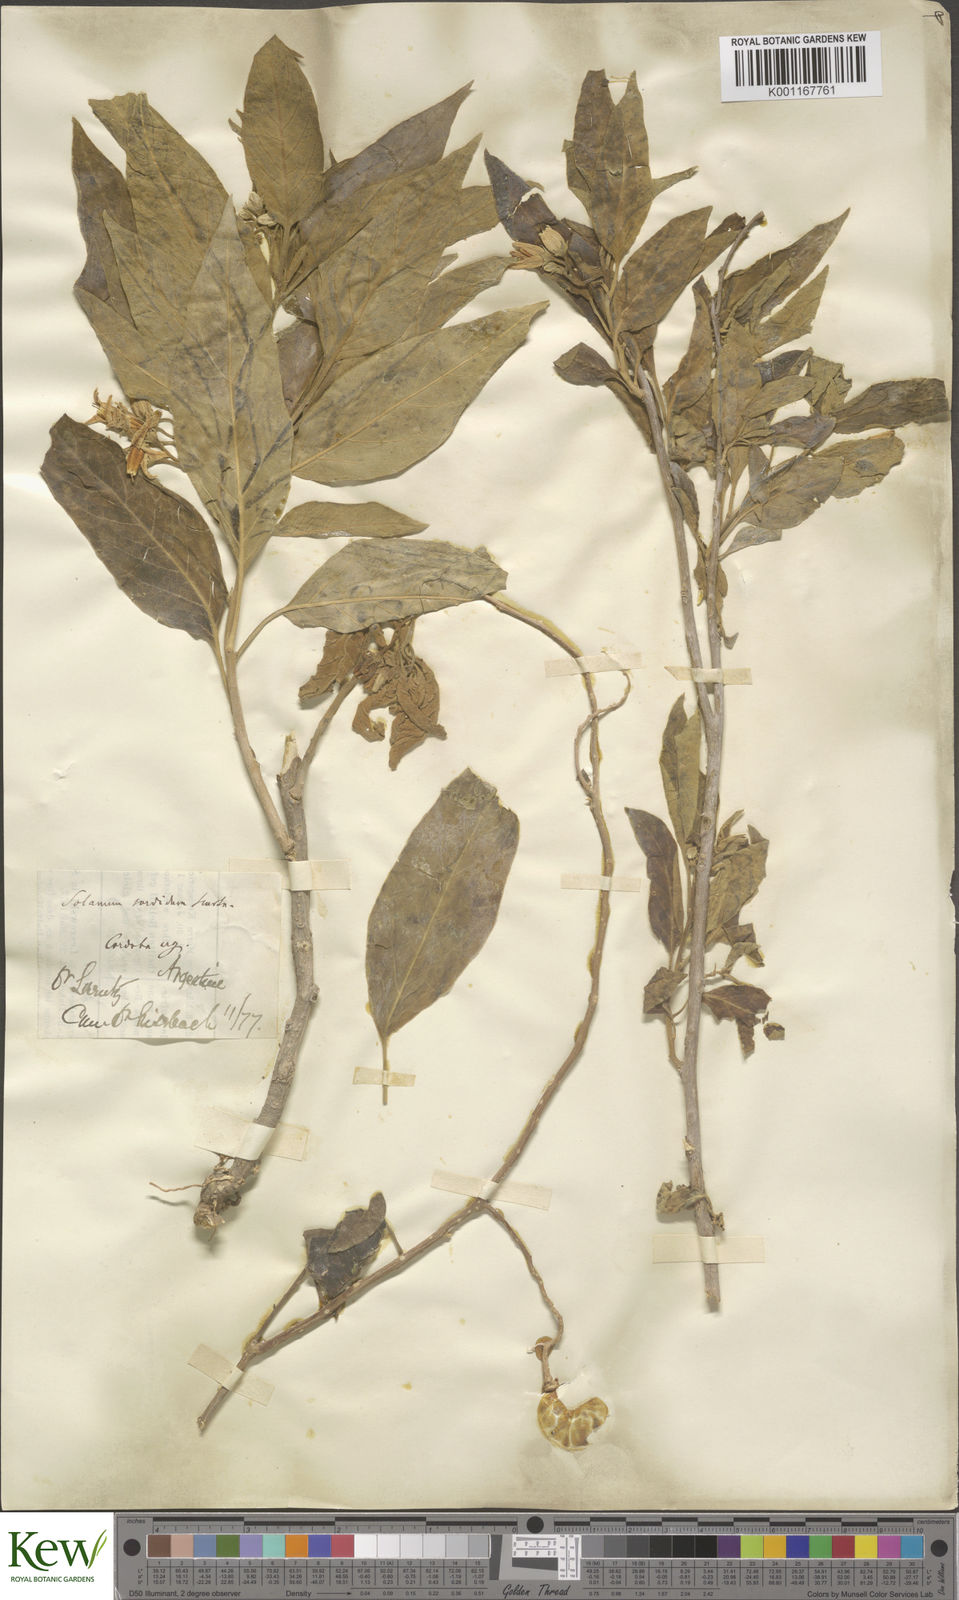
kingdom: Plantae
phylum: Tracheophyta
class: Magnoliopsida
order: Solanales
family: Solanaceae
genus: Solanum
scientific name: Solanum stuckertii
